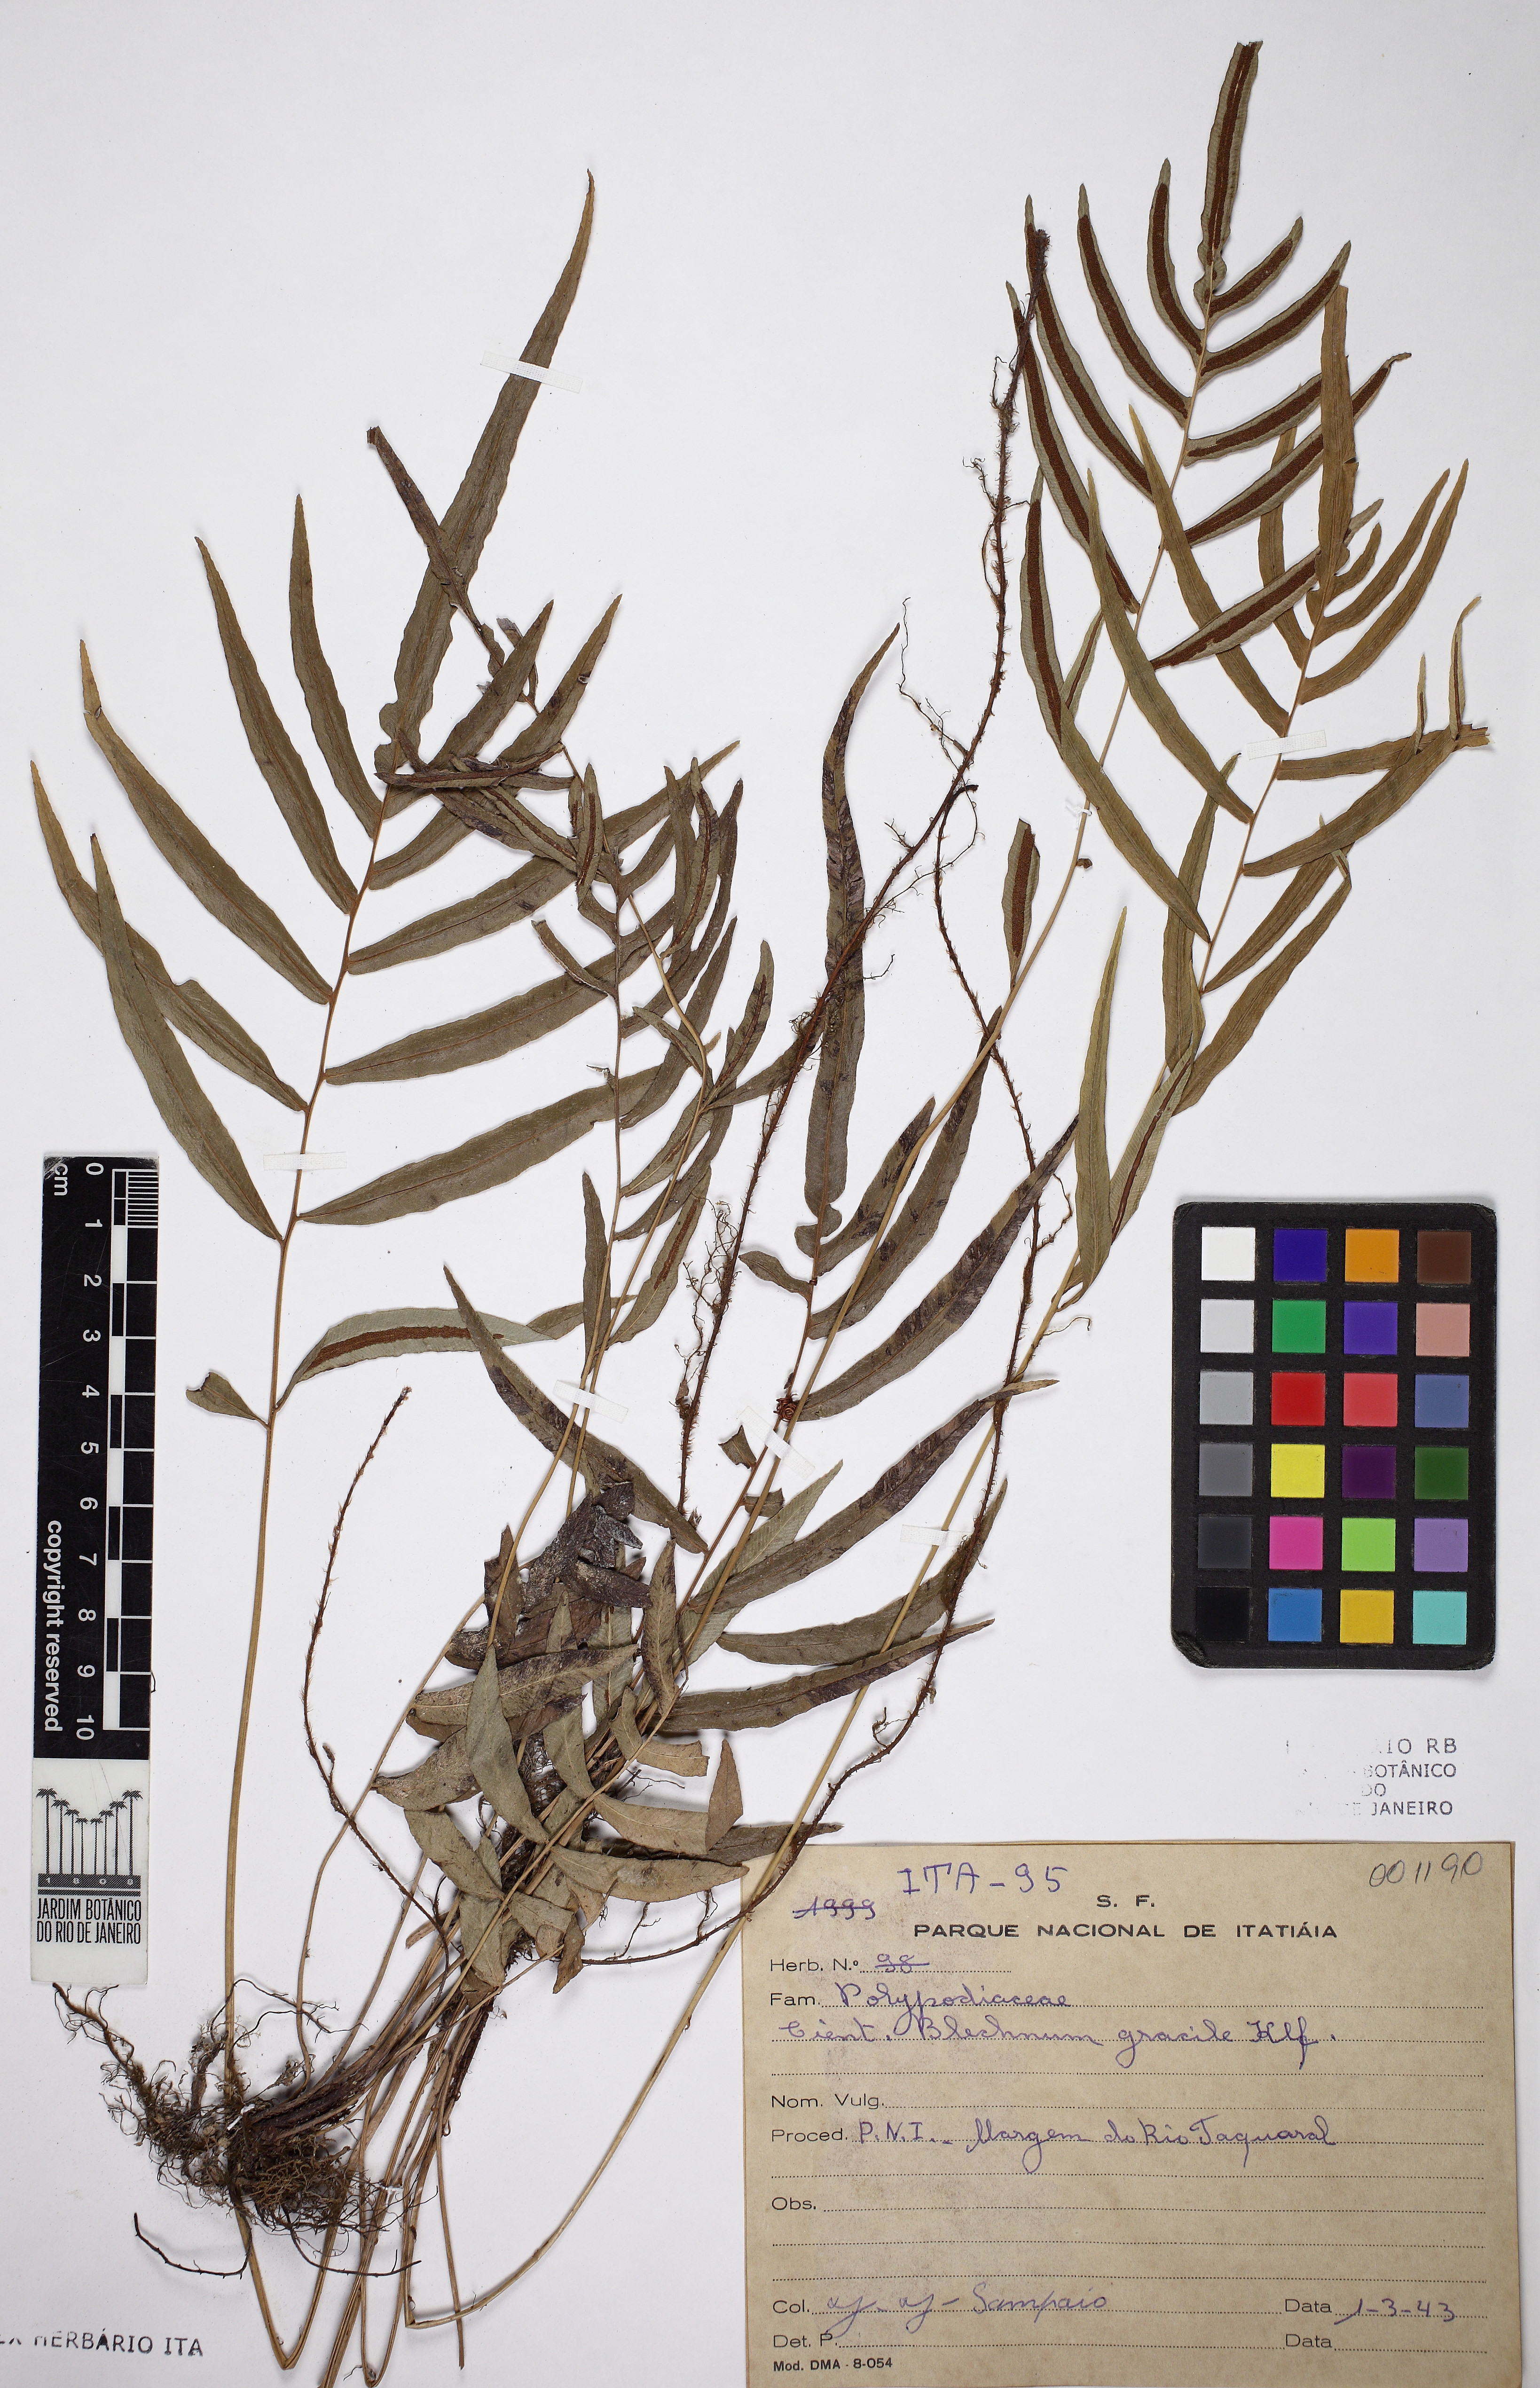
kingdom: Plantae
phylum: Tracheophyta
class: Polypodiopsida
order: Polypodiales
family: Blechnaceae
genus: Blechnum
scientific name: Blechnum gracile
